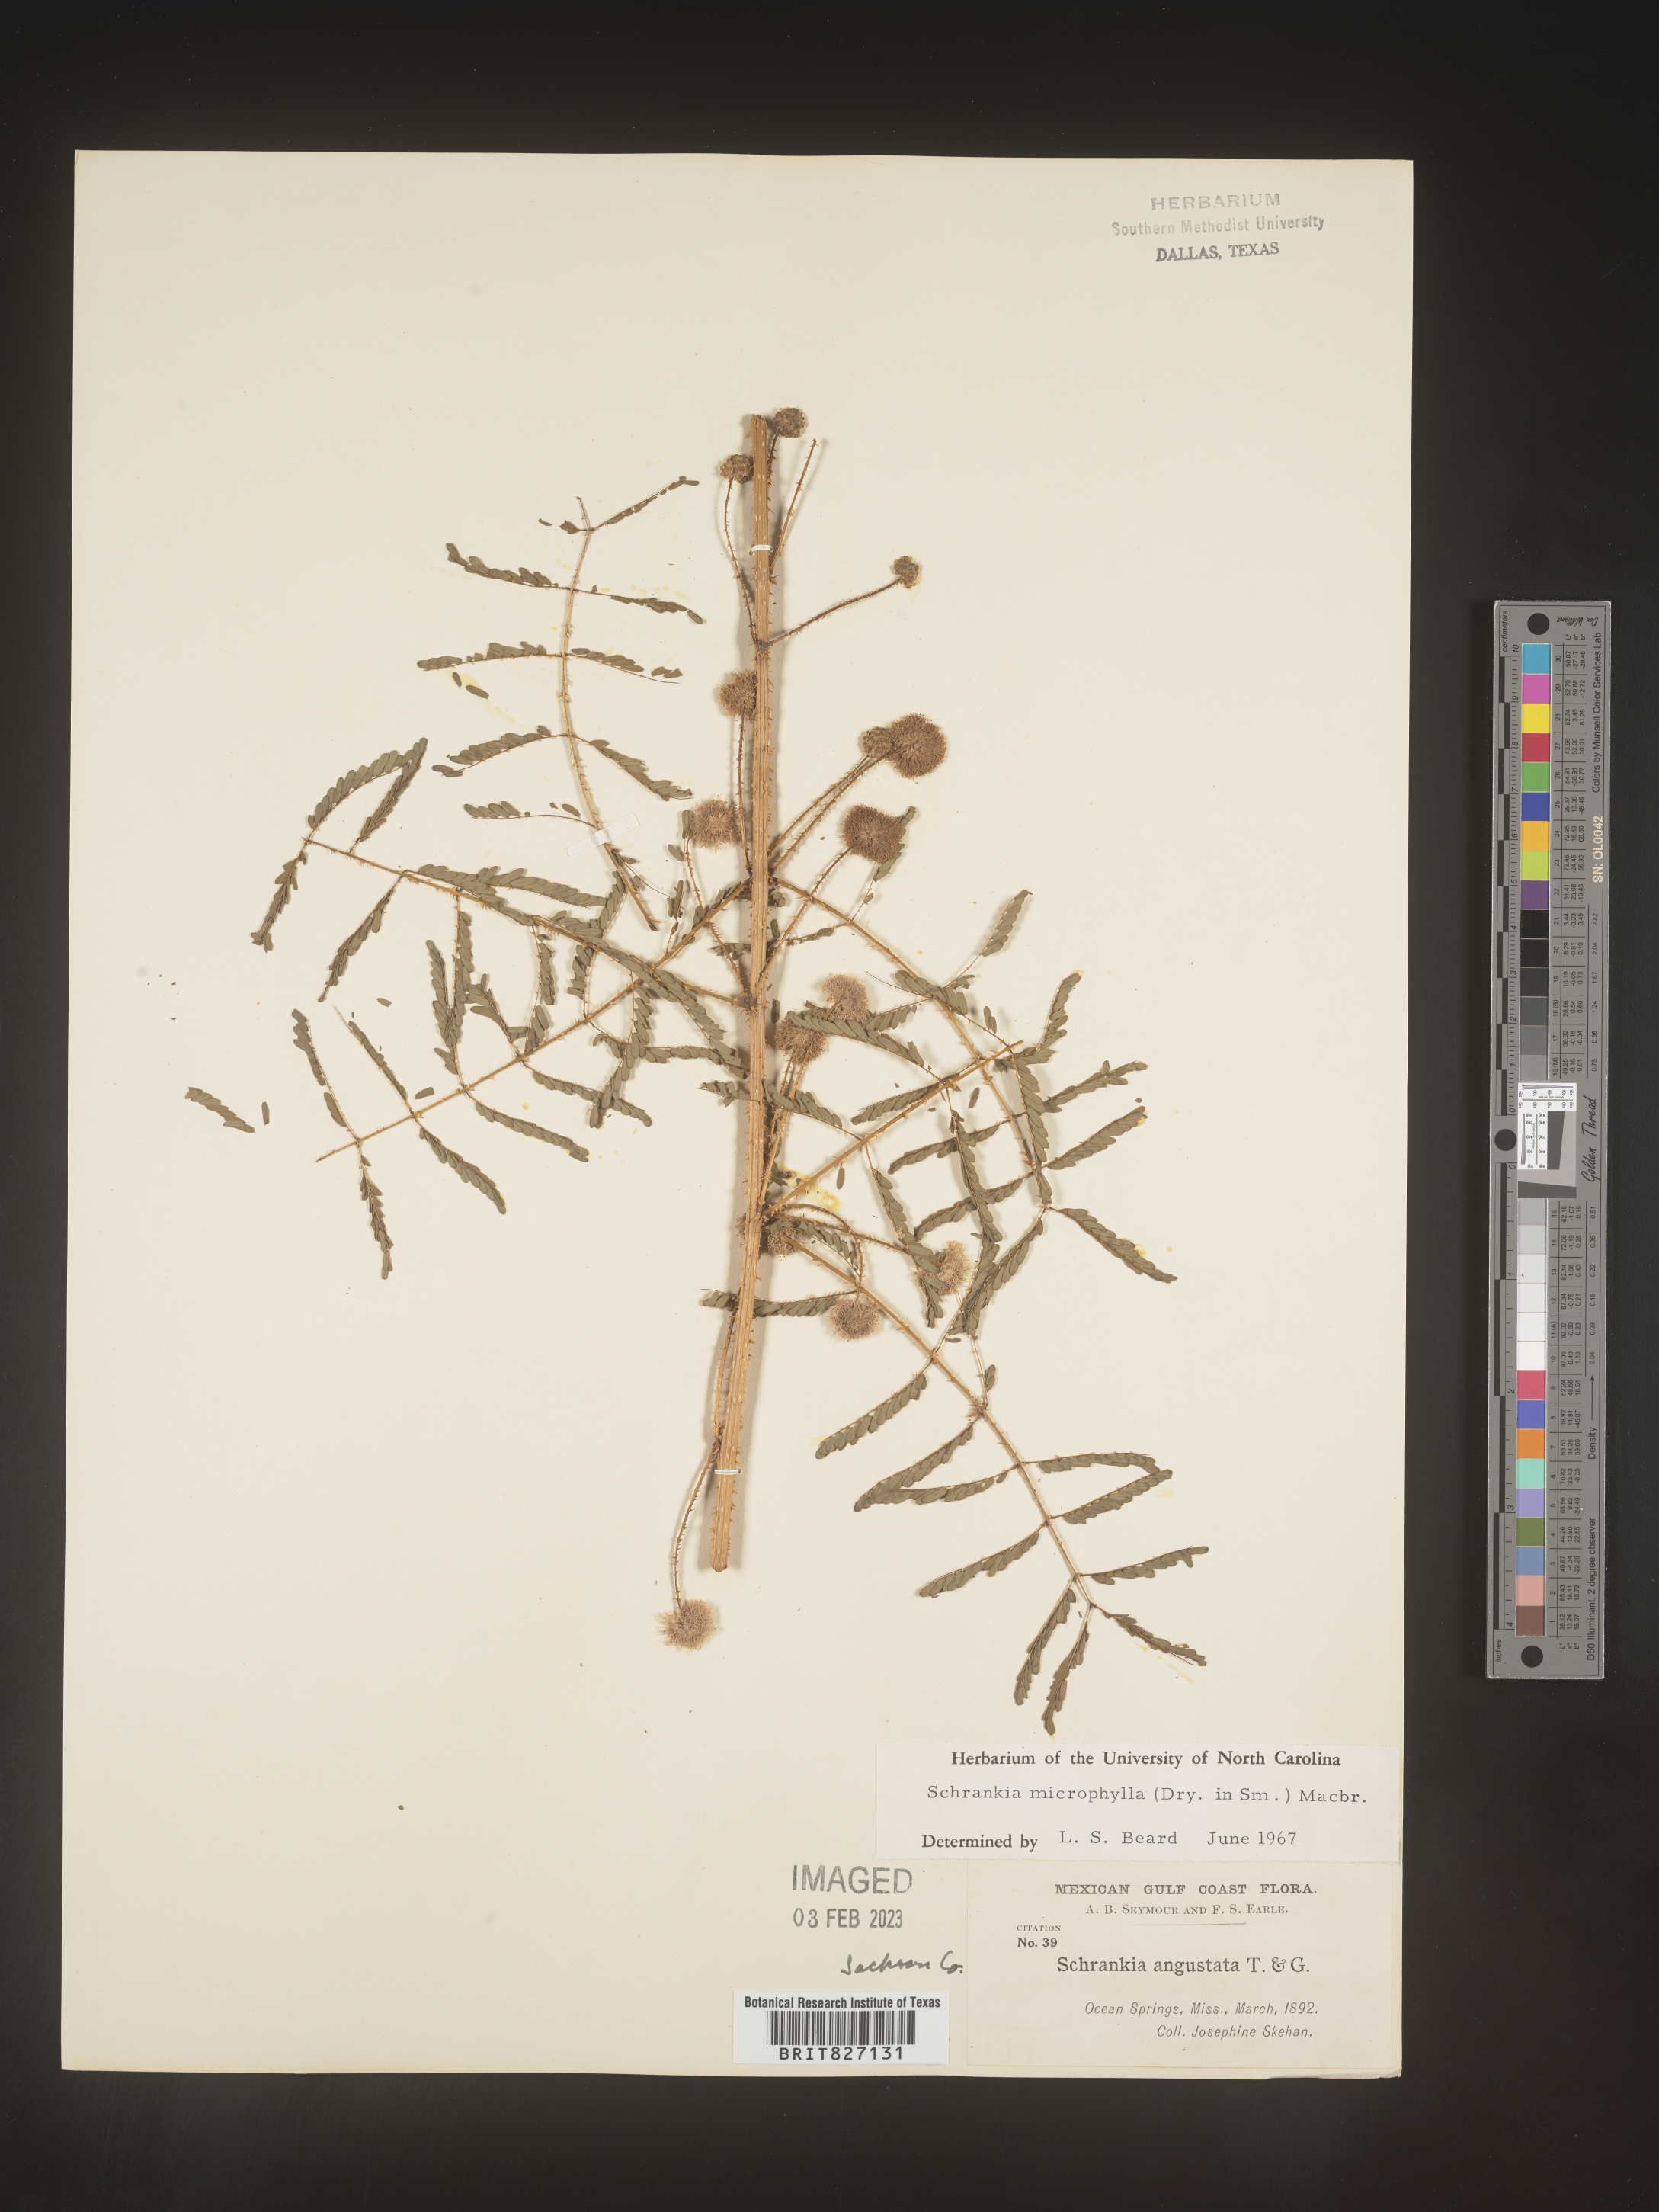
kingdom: Plantae
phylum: Tracheophyta
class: Magnoliopsida
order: Fabales
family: Fabaceae
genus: Mimosa
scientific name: Mimosa quadrivalvis
